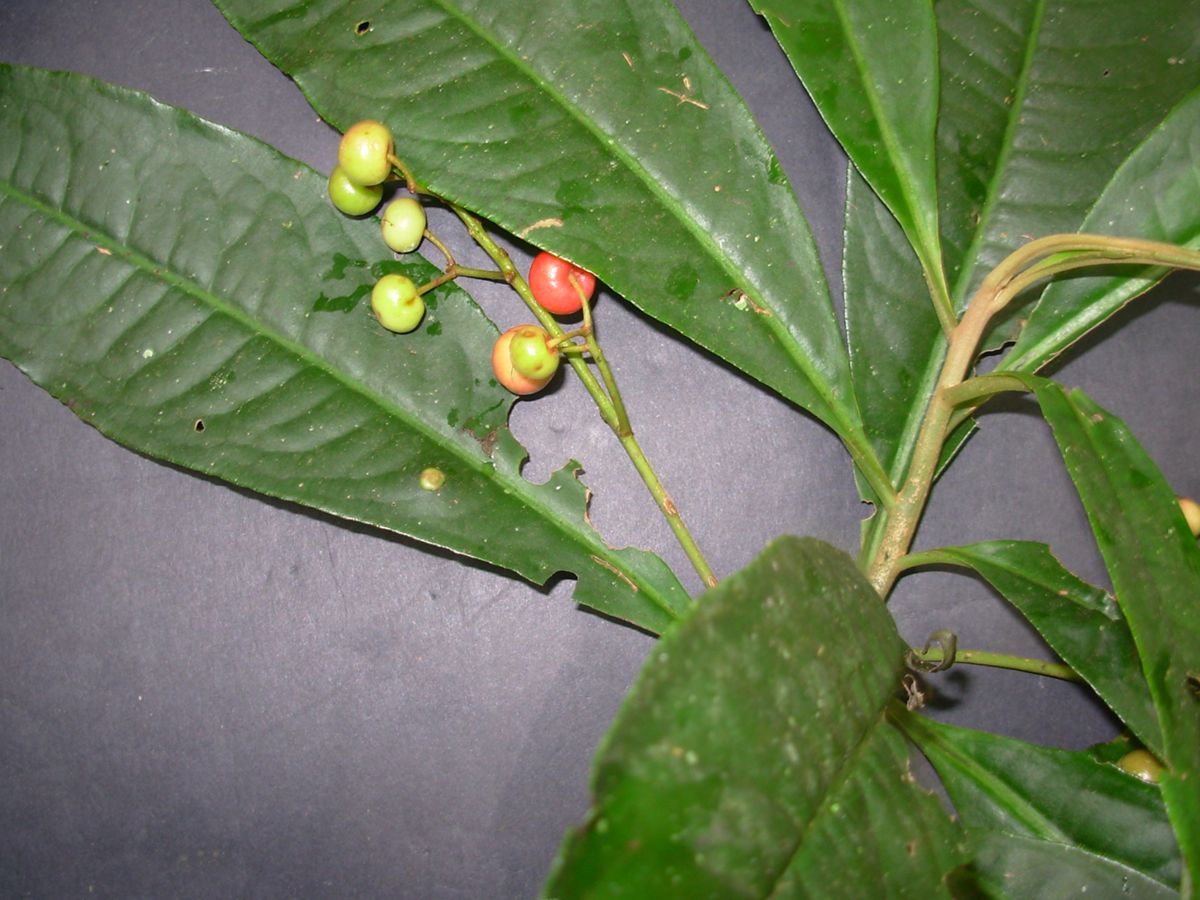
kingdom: Plantae
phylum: Tracheophyta
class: Magnoliopsida
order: Ericales
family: Primulaceae
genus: Parathesis
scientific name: Parathesis aurantiaca
